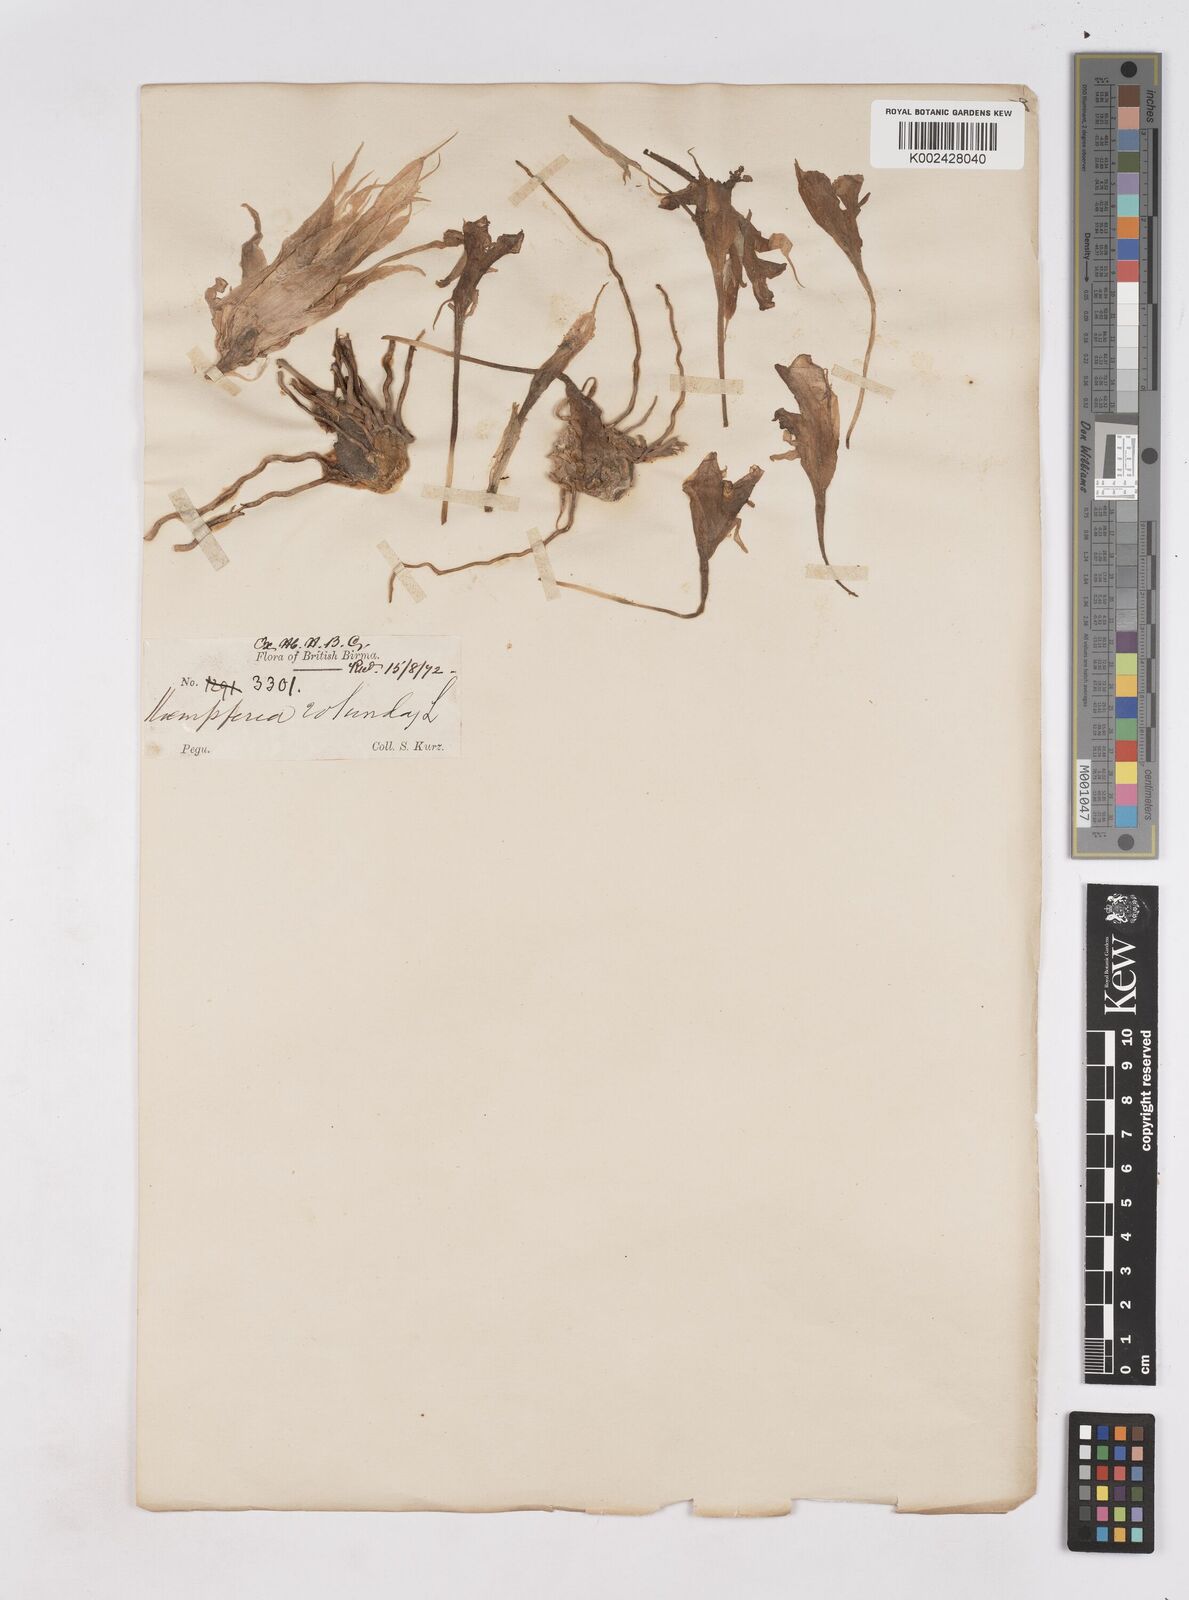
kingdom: Plantae
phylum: Tracheophyta
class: Liliopsida
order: Zingiberales
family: Zingiberaceae
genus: Kaempferia
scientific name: Kaempferia rotunda
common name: Tropical-crocus
